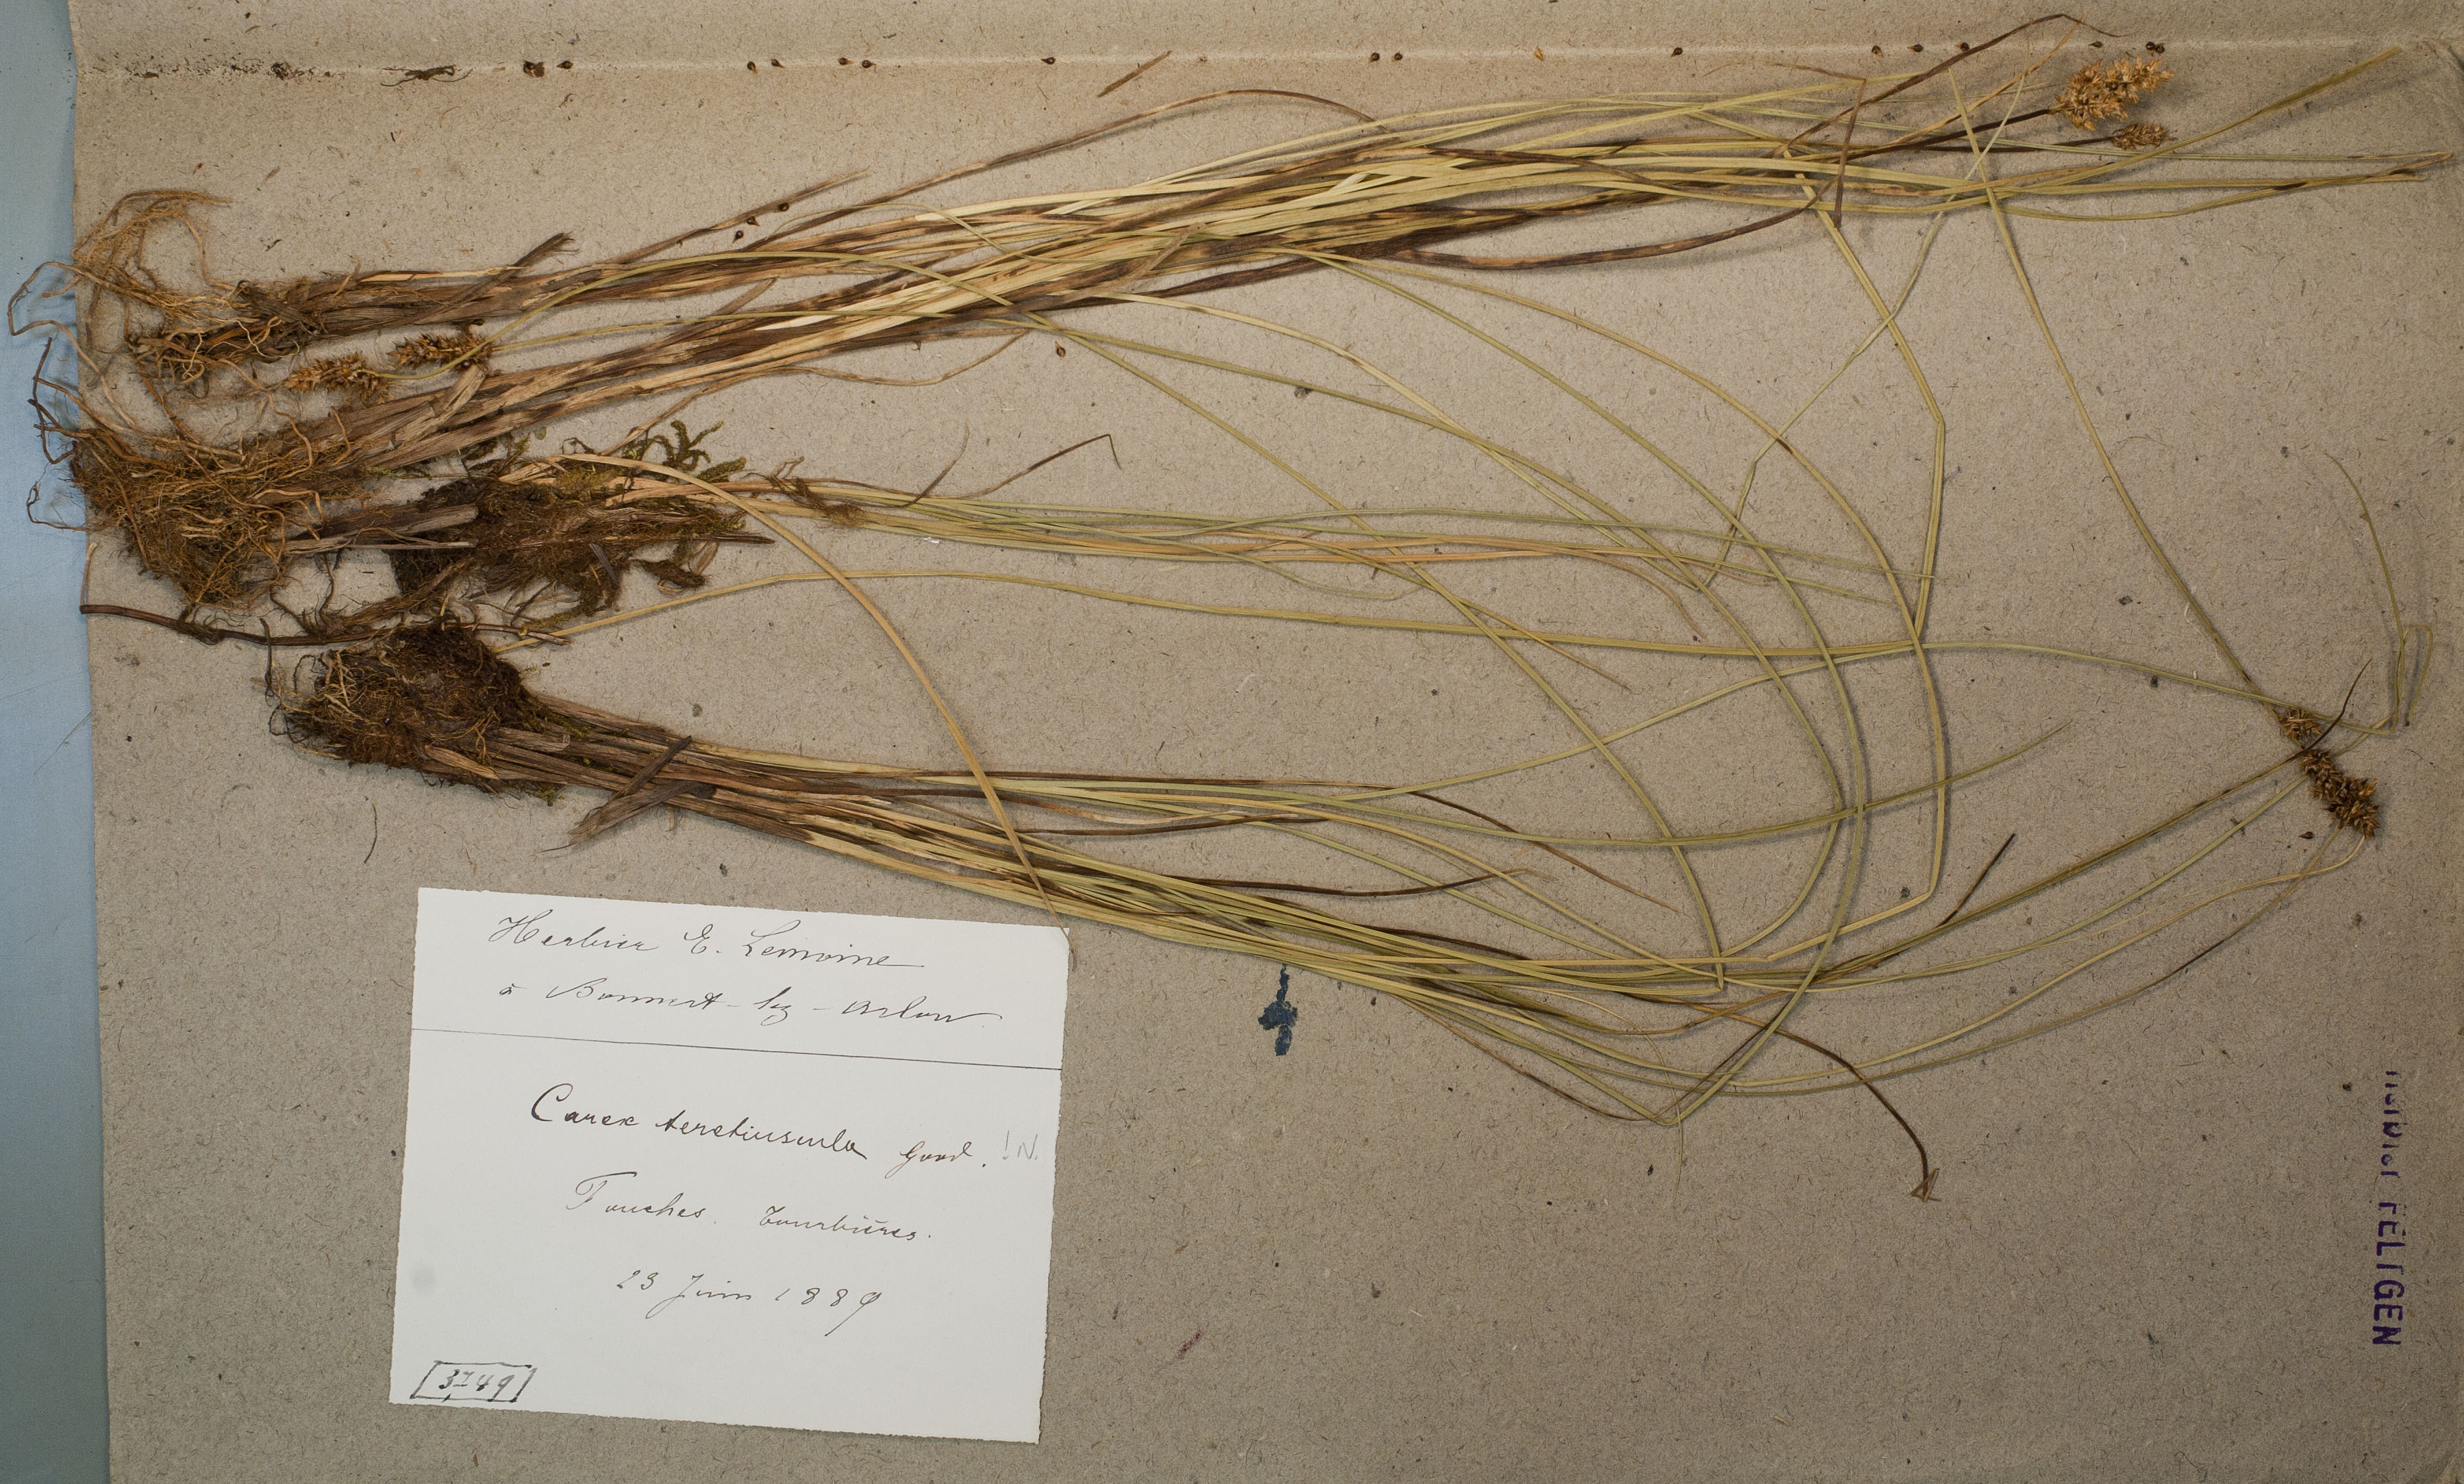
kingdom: Plantae
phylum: Tracheophyta
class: Liliopsida
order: Poales
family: Cyperaceae
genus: Carex
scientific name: Carex diandra
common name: Lesser tussock-sedge
